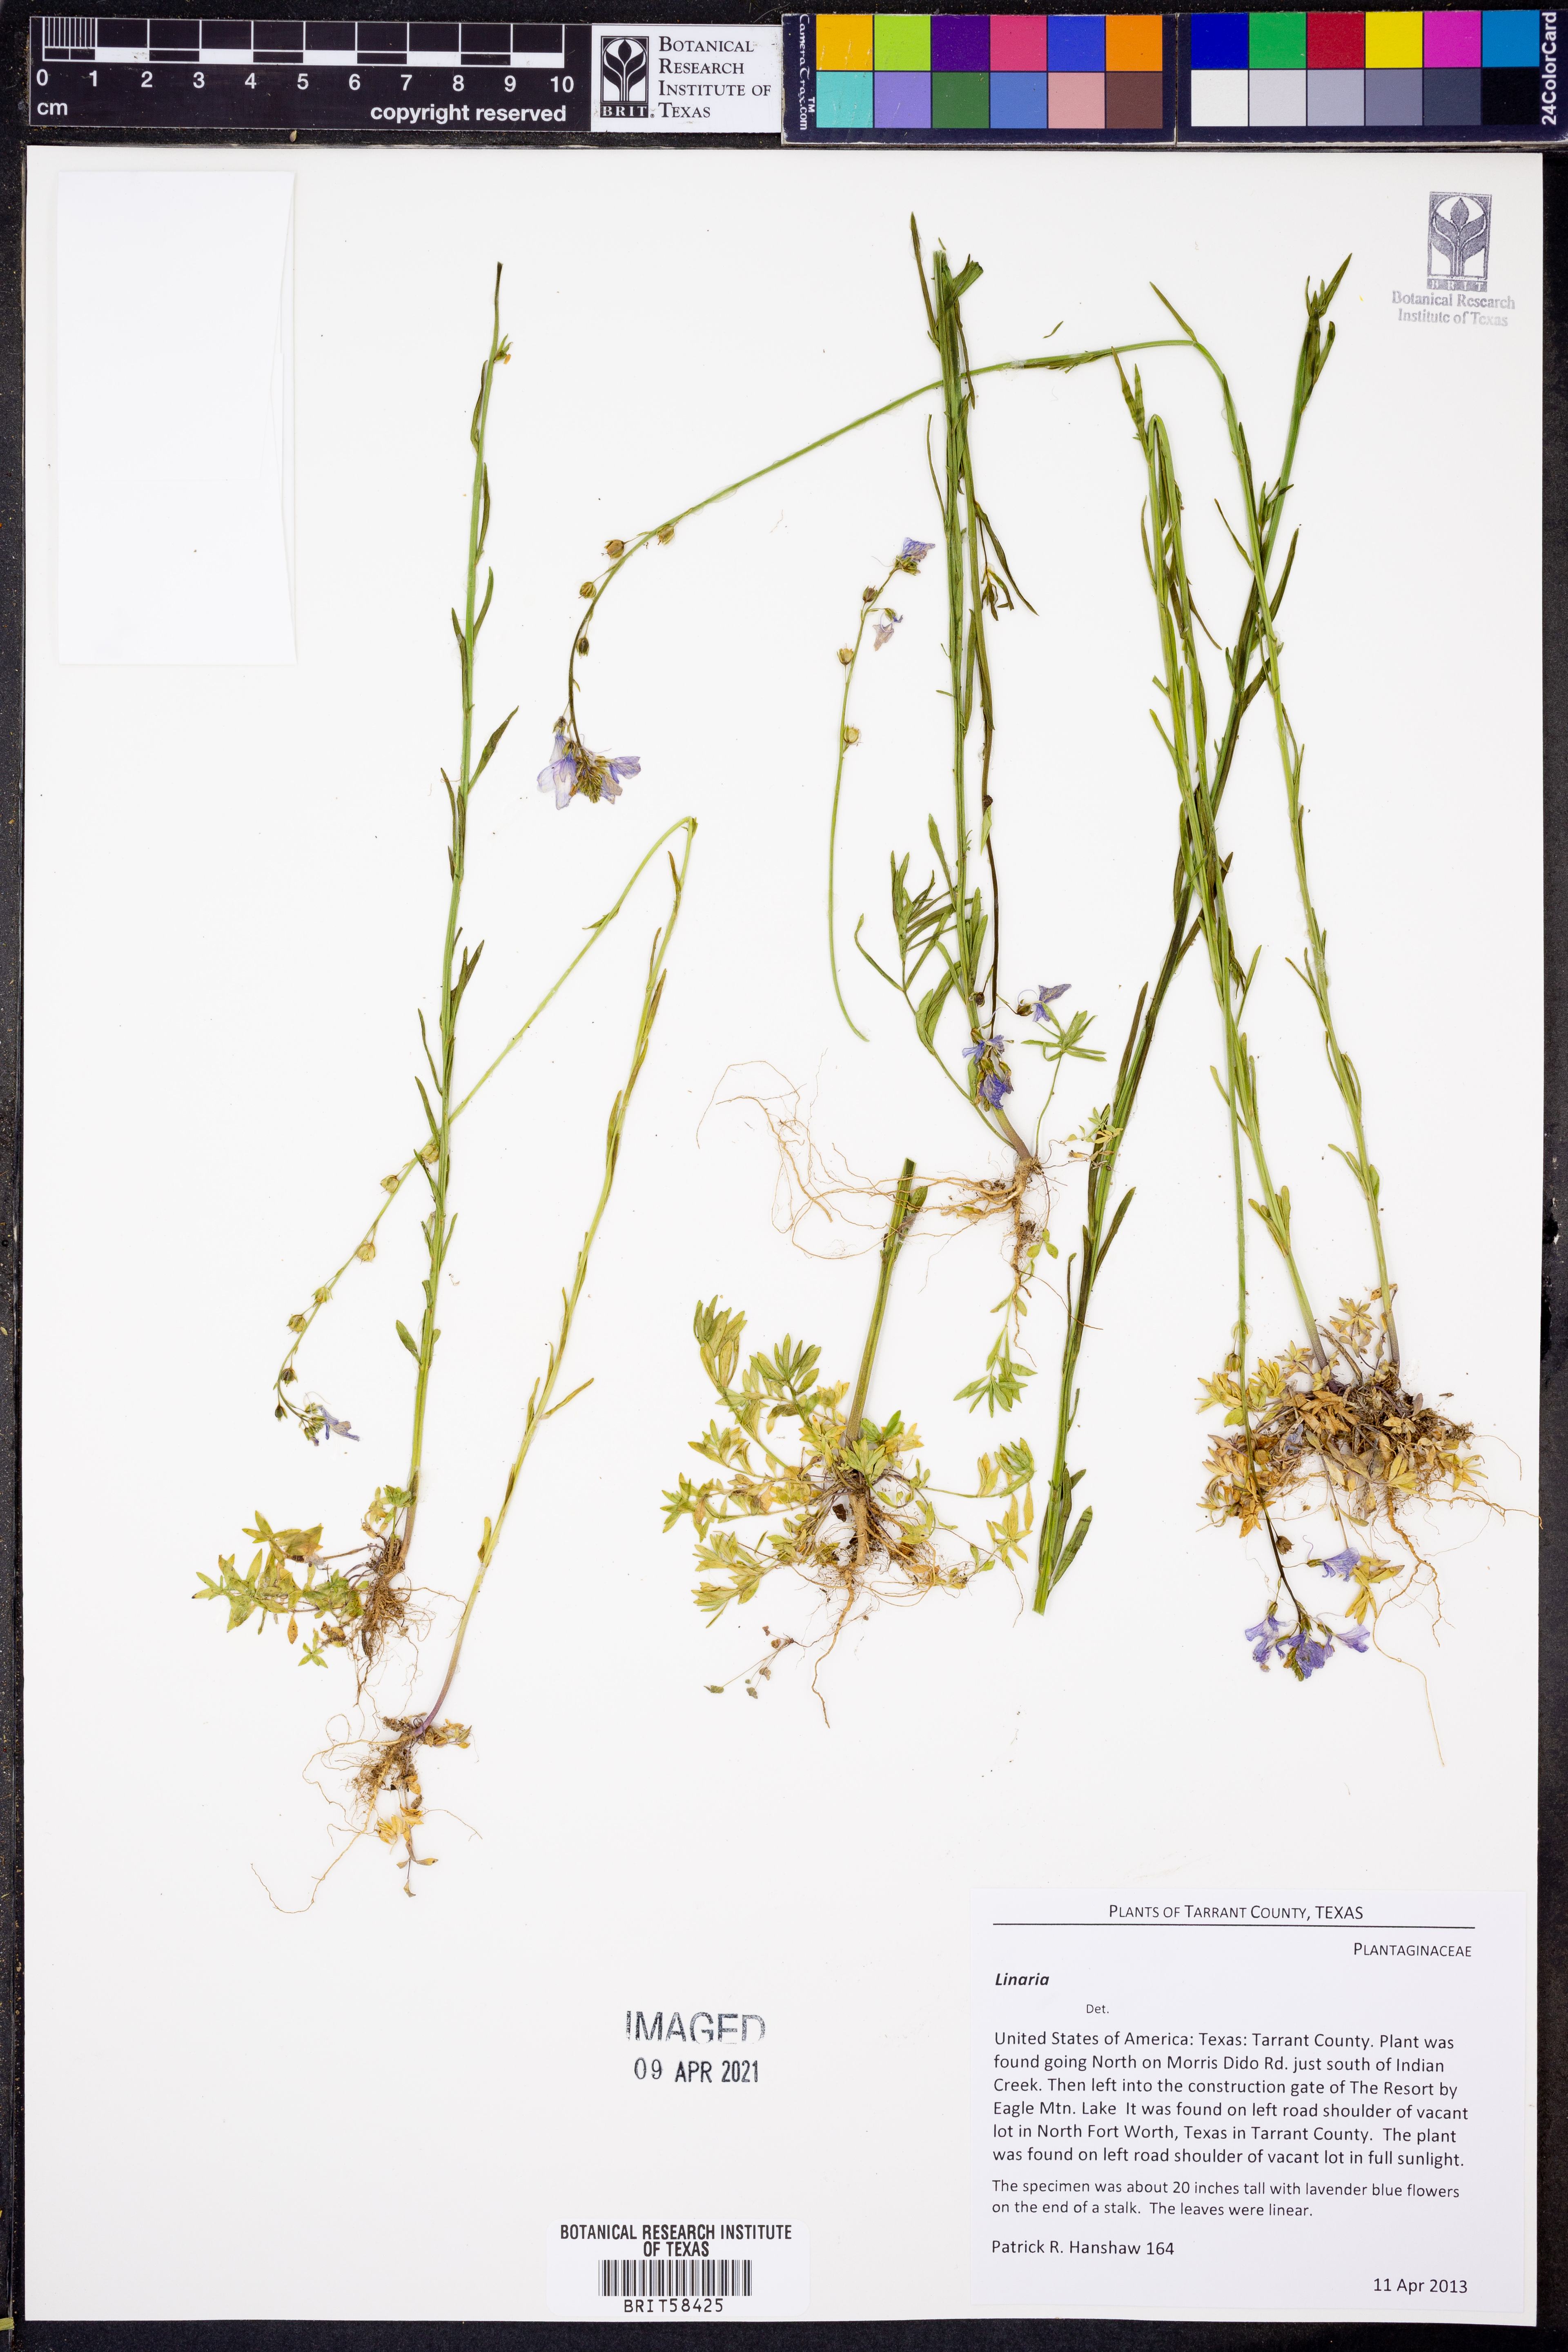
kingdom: Plantae
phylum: Tracheophyta
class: Magnoliopsida
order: Lamiales
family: Plantaginaceae
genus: Linaria
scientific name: Linaria
